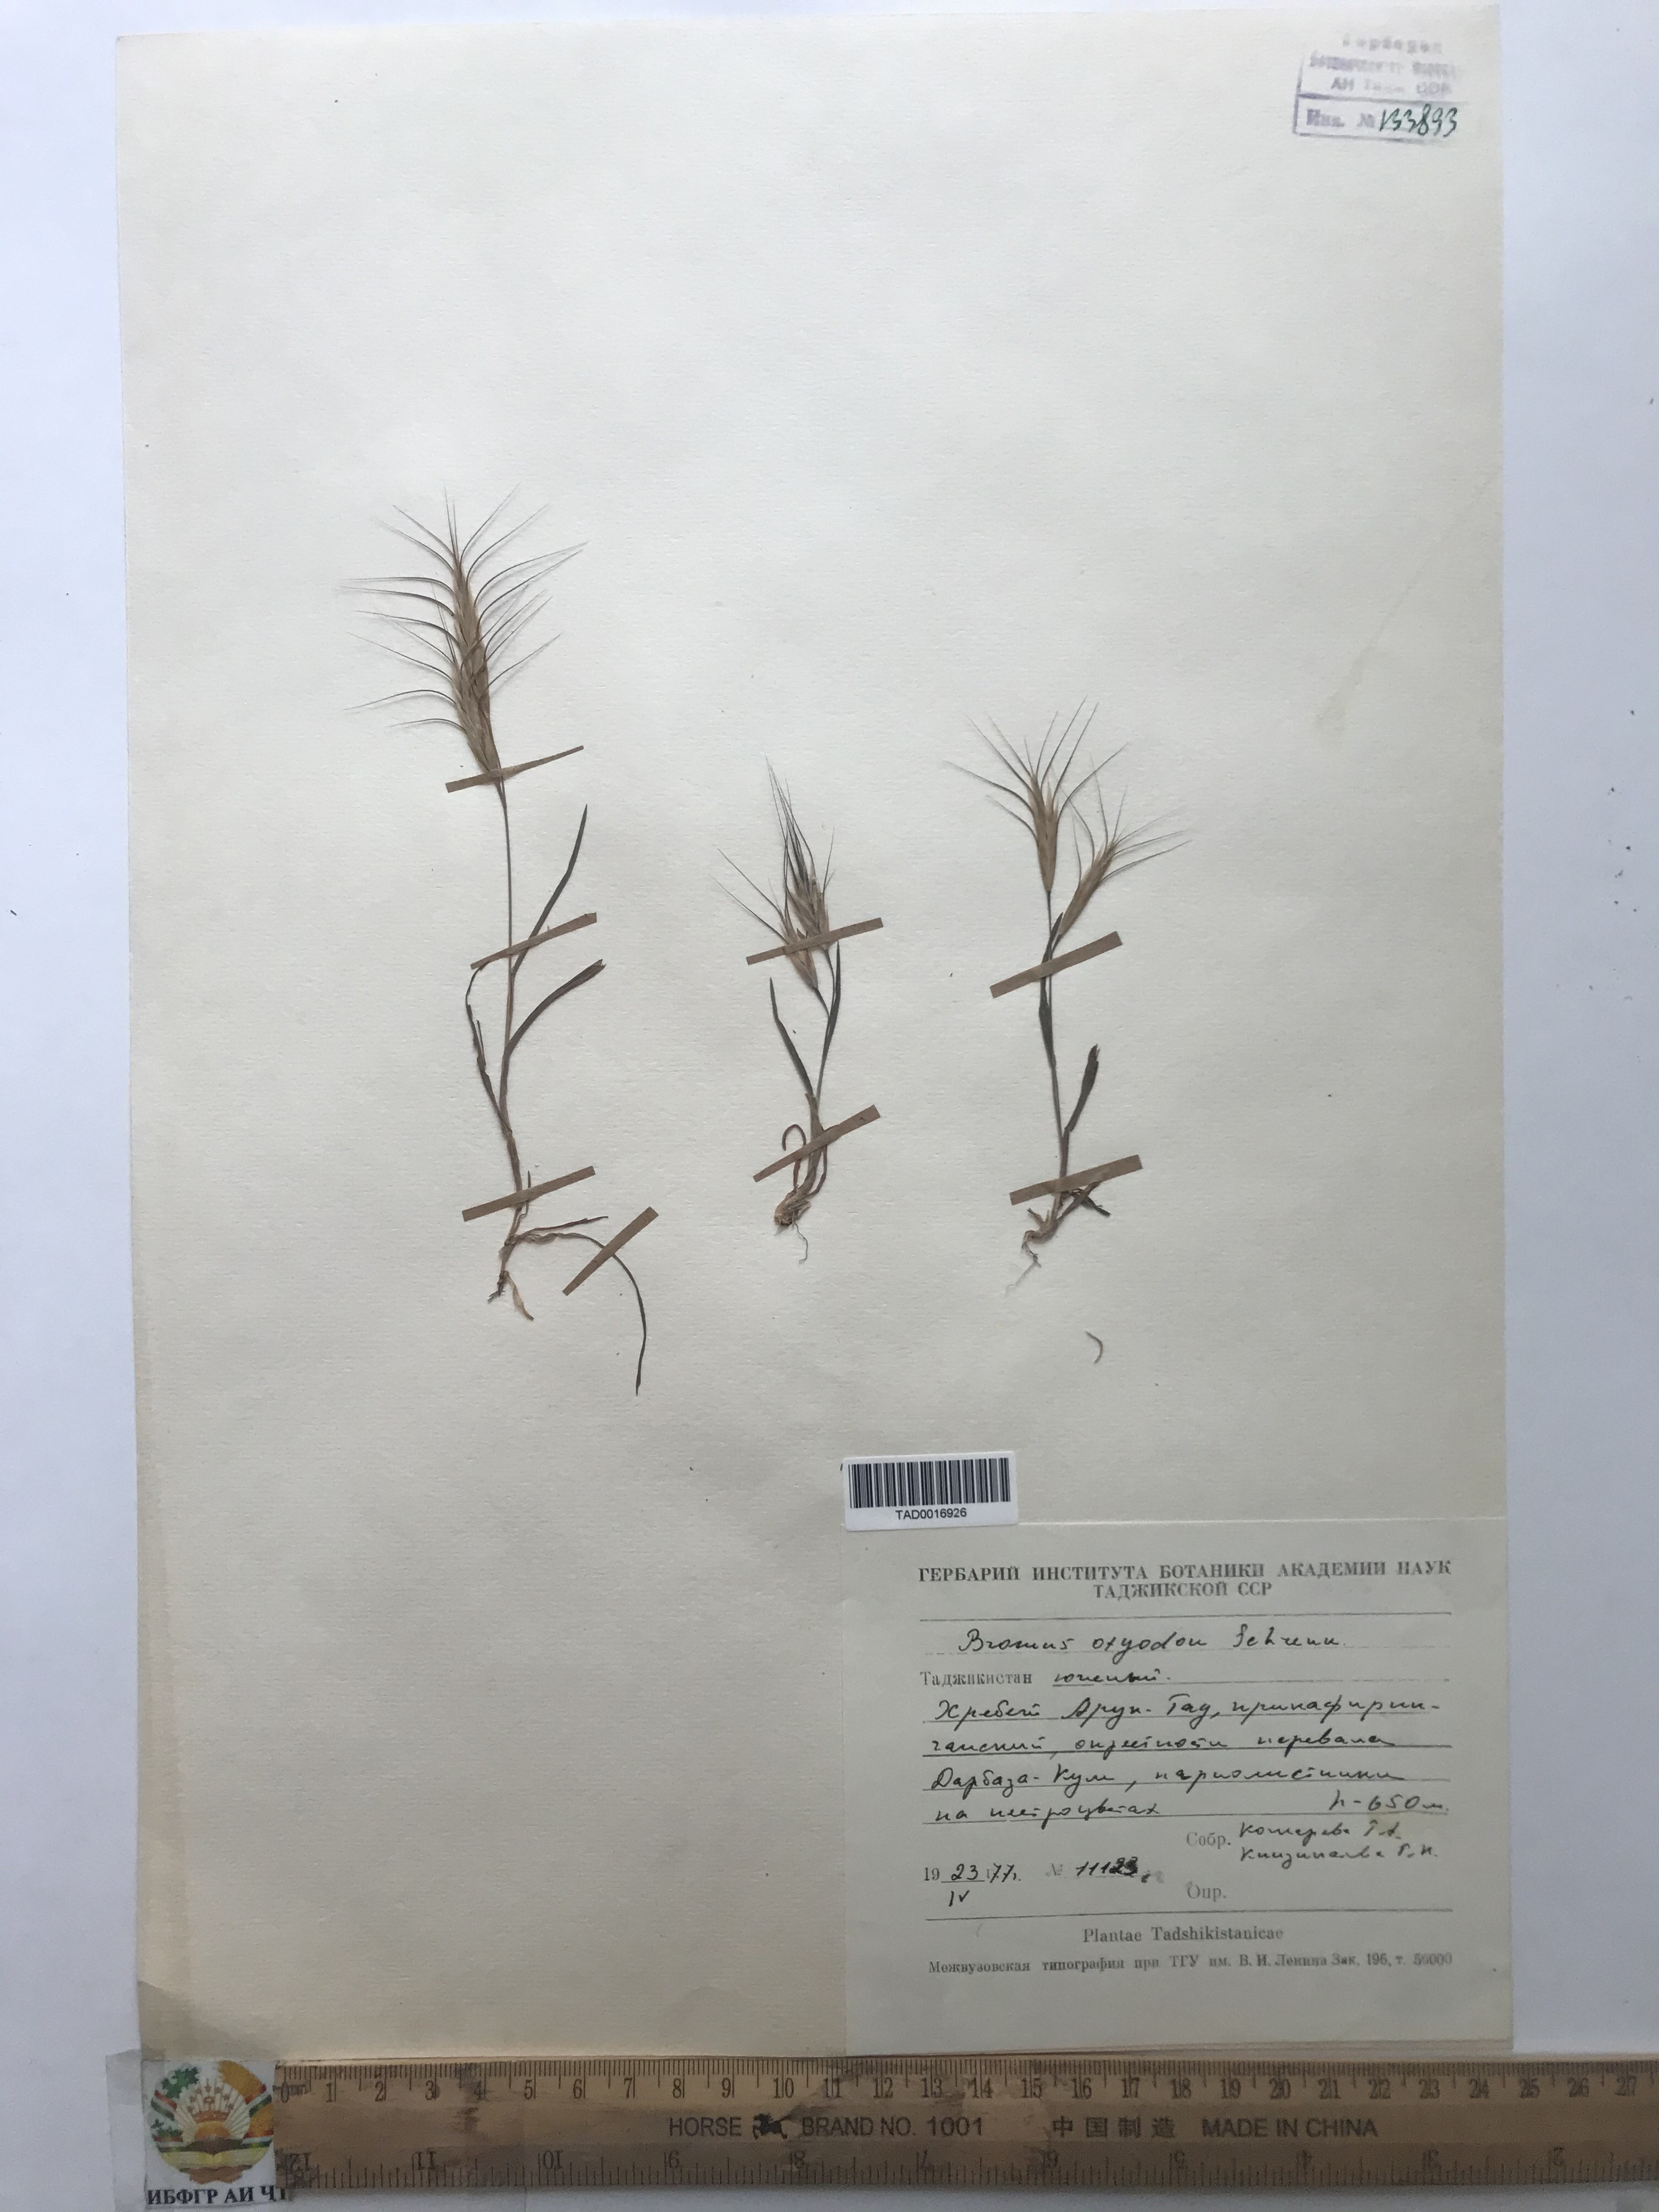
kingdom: Plantae
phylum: Tracheophyta
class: Liliopsida
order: Poales
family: Poaceae
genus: Bromus
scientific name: Bromus oxyodon
